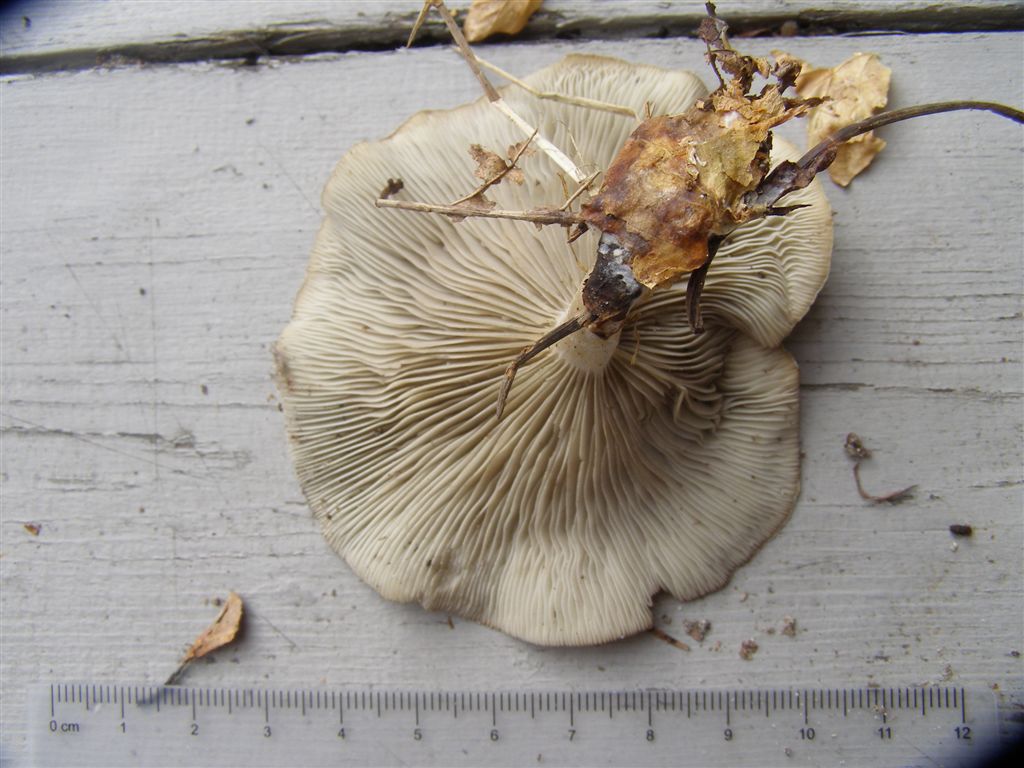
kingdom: Fungi
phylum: Basidiomycota
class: Agaricomycetes
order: Agaricales
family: Tricholomataceae
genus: Clitocybe
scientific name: Clitocybe odora
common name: Aniseed funnel
